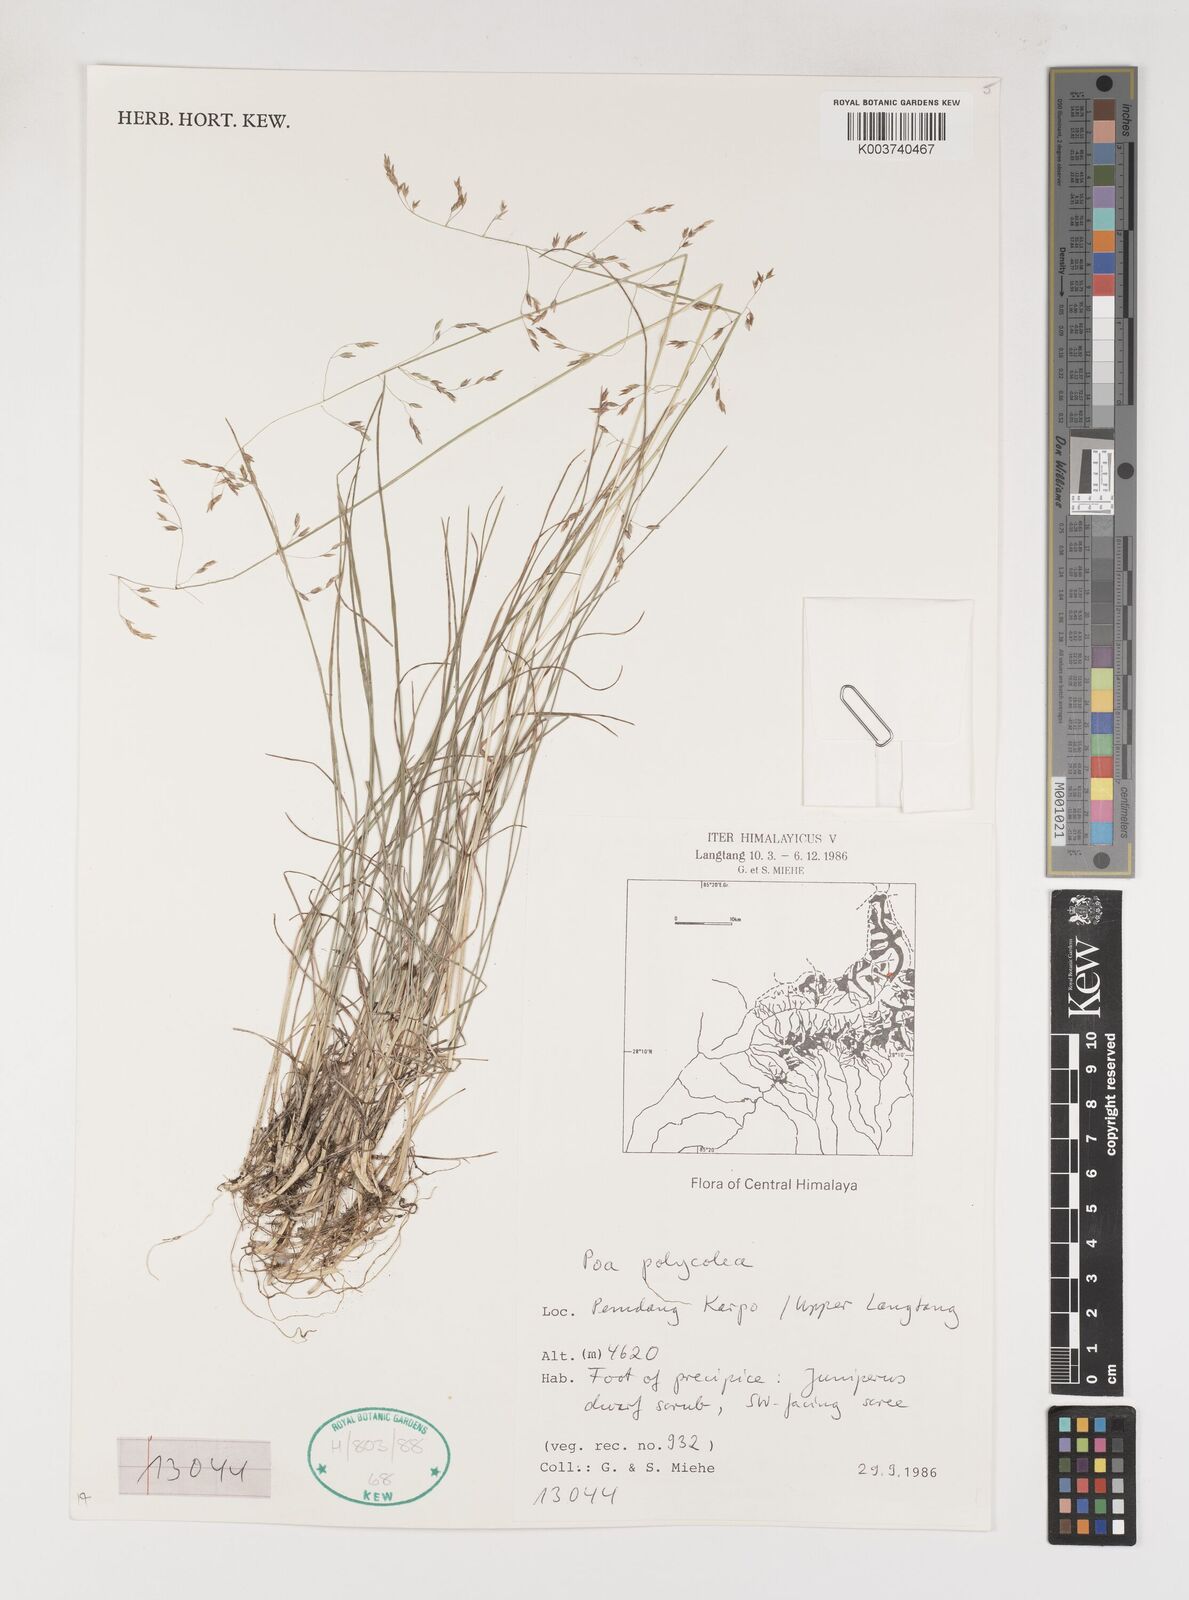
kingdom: Plantae
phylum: Tracheophyta
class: Liliopsida
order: Poales
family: Poaceae
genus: Poa
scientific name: Poa polycolea
